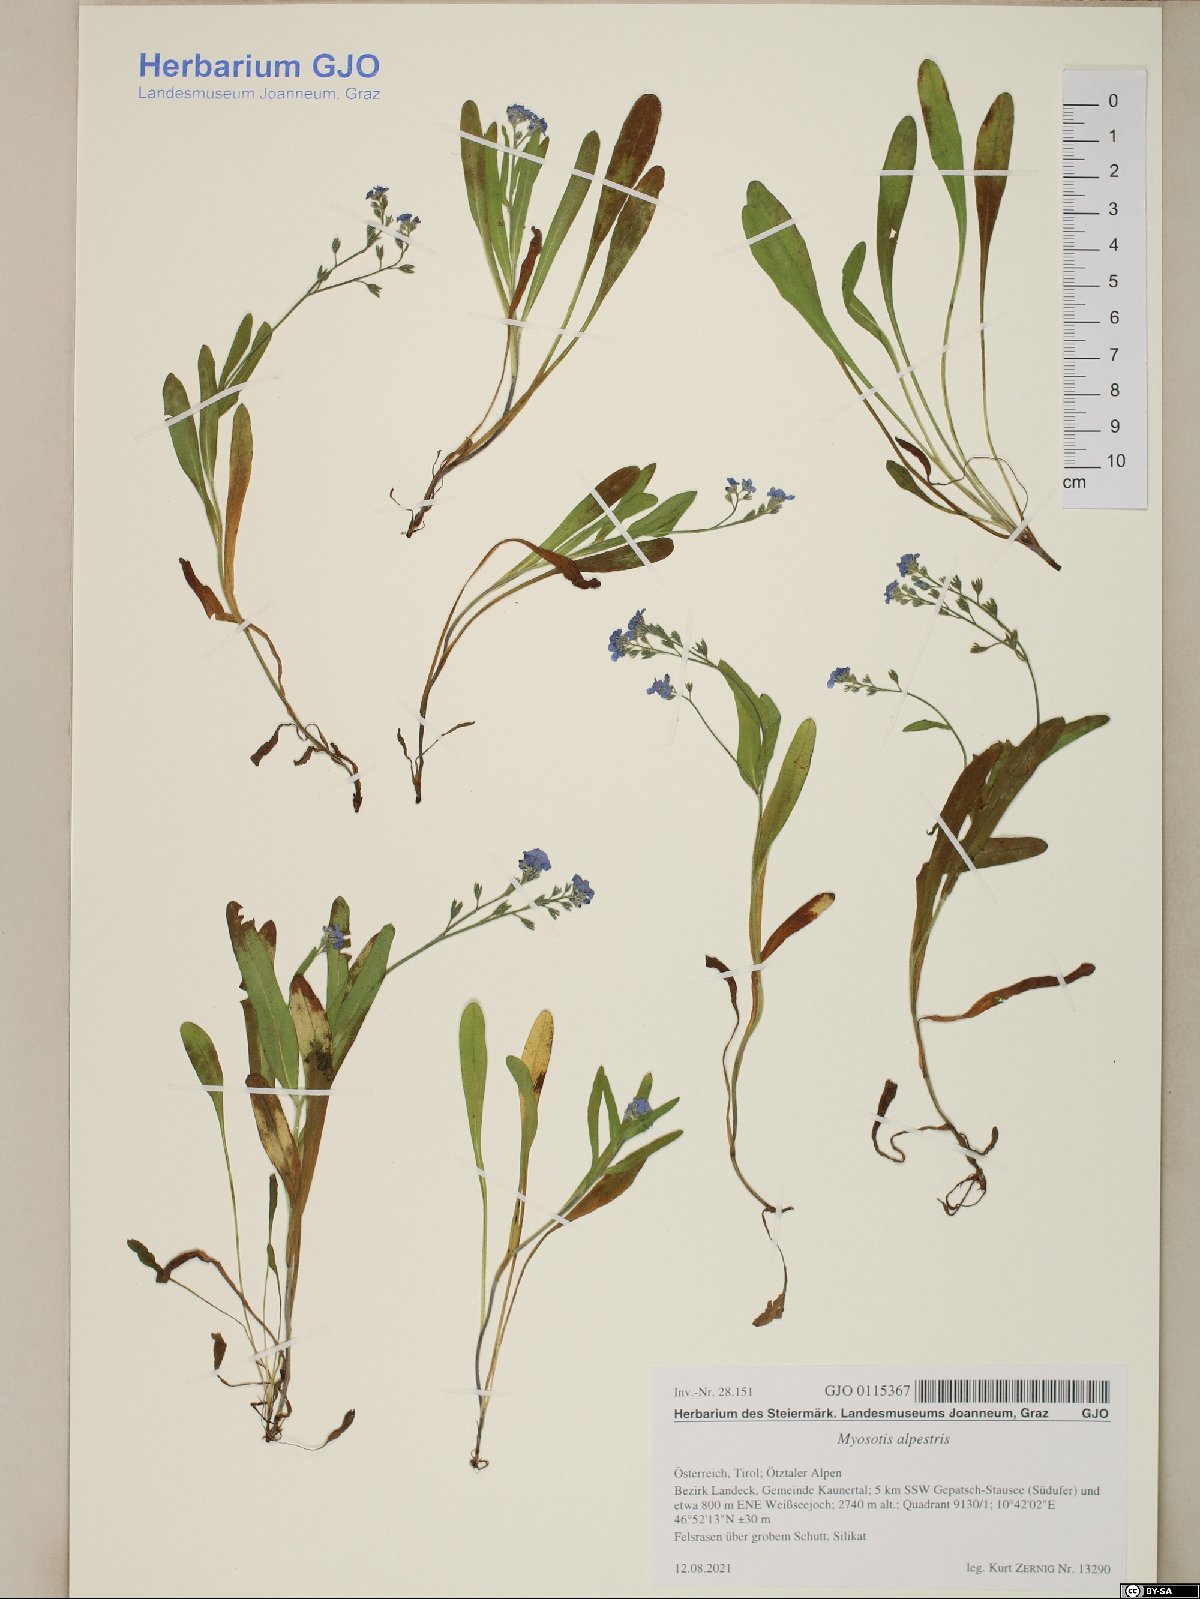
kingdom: Plantae
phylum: Tracheophyta
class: Magnoliopsida
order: Boraginales
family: Boraginaceae
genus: Myosotis
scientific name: Myosotis alpestris
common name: Alpine forget-me-not
